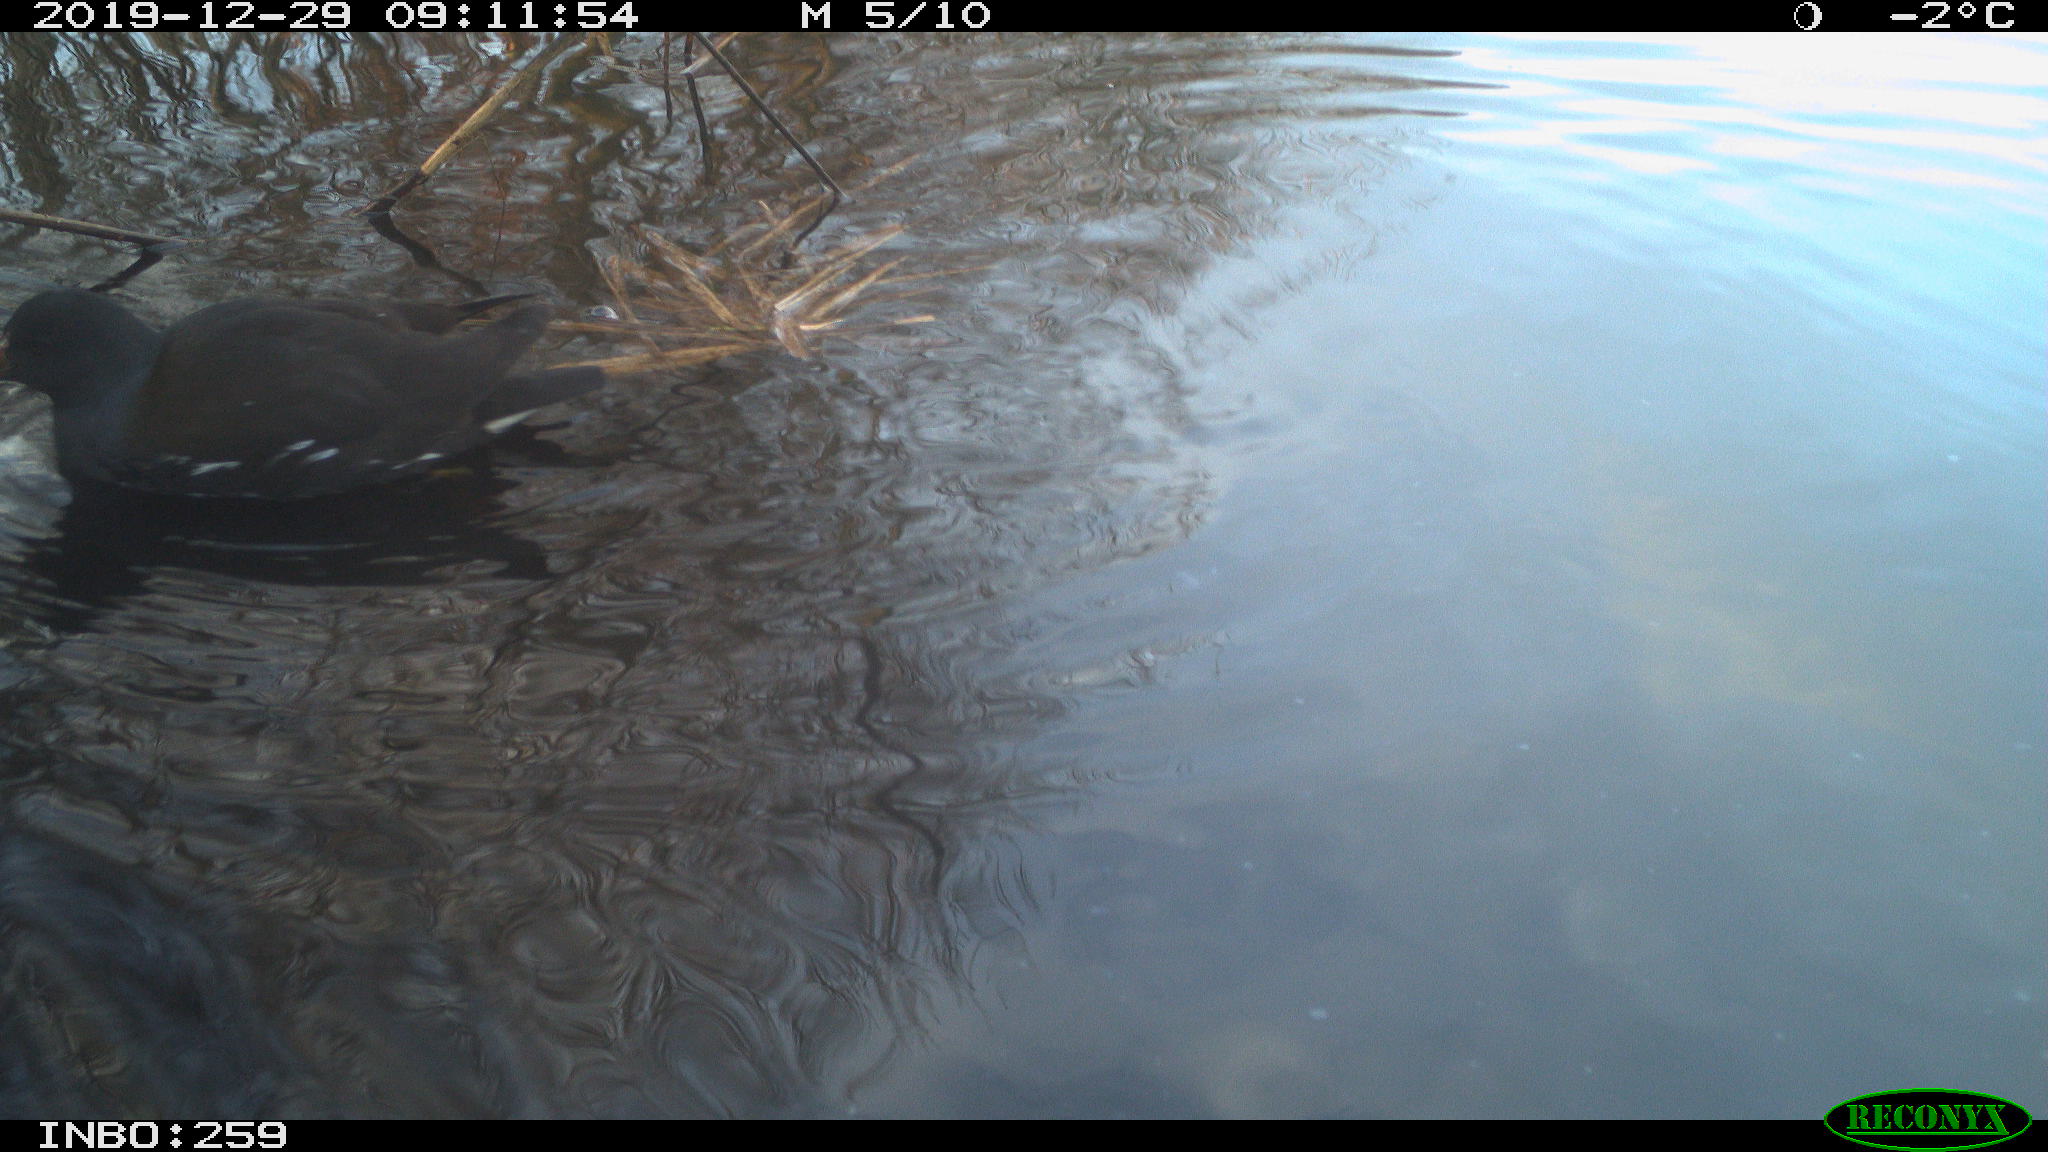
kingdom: Animalia
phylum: Chordata
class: Aves
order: Gruiformes
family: Rallidae
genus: Gallinula
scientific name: Gallinula chloropus
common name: Common moorhen
